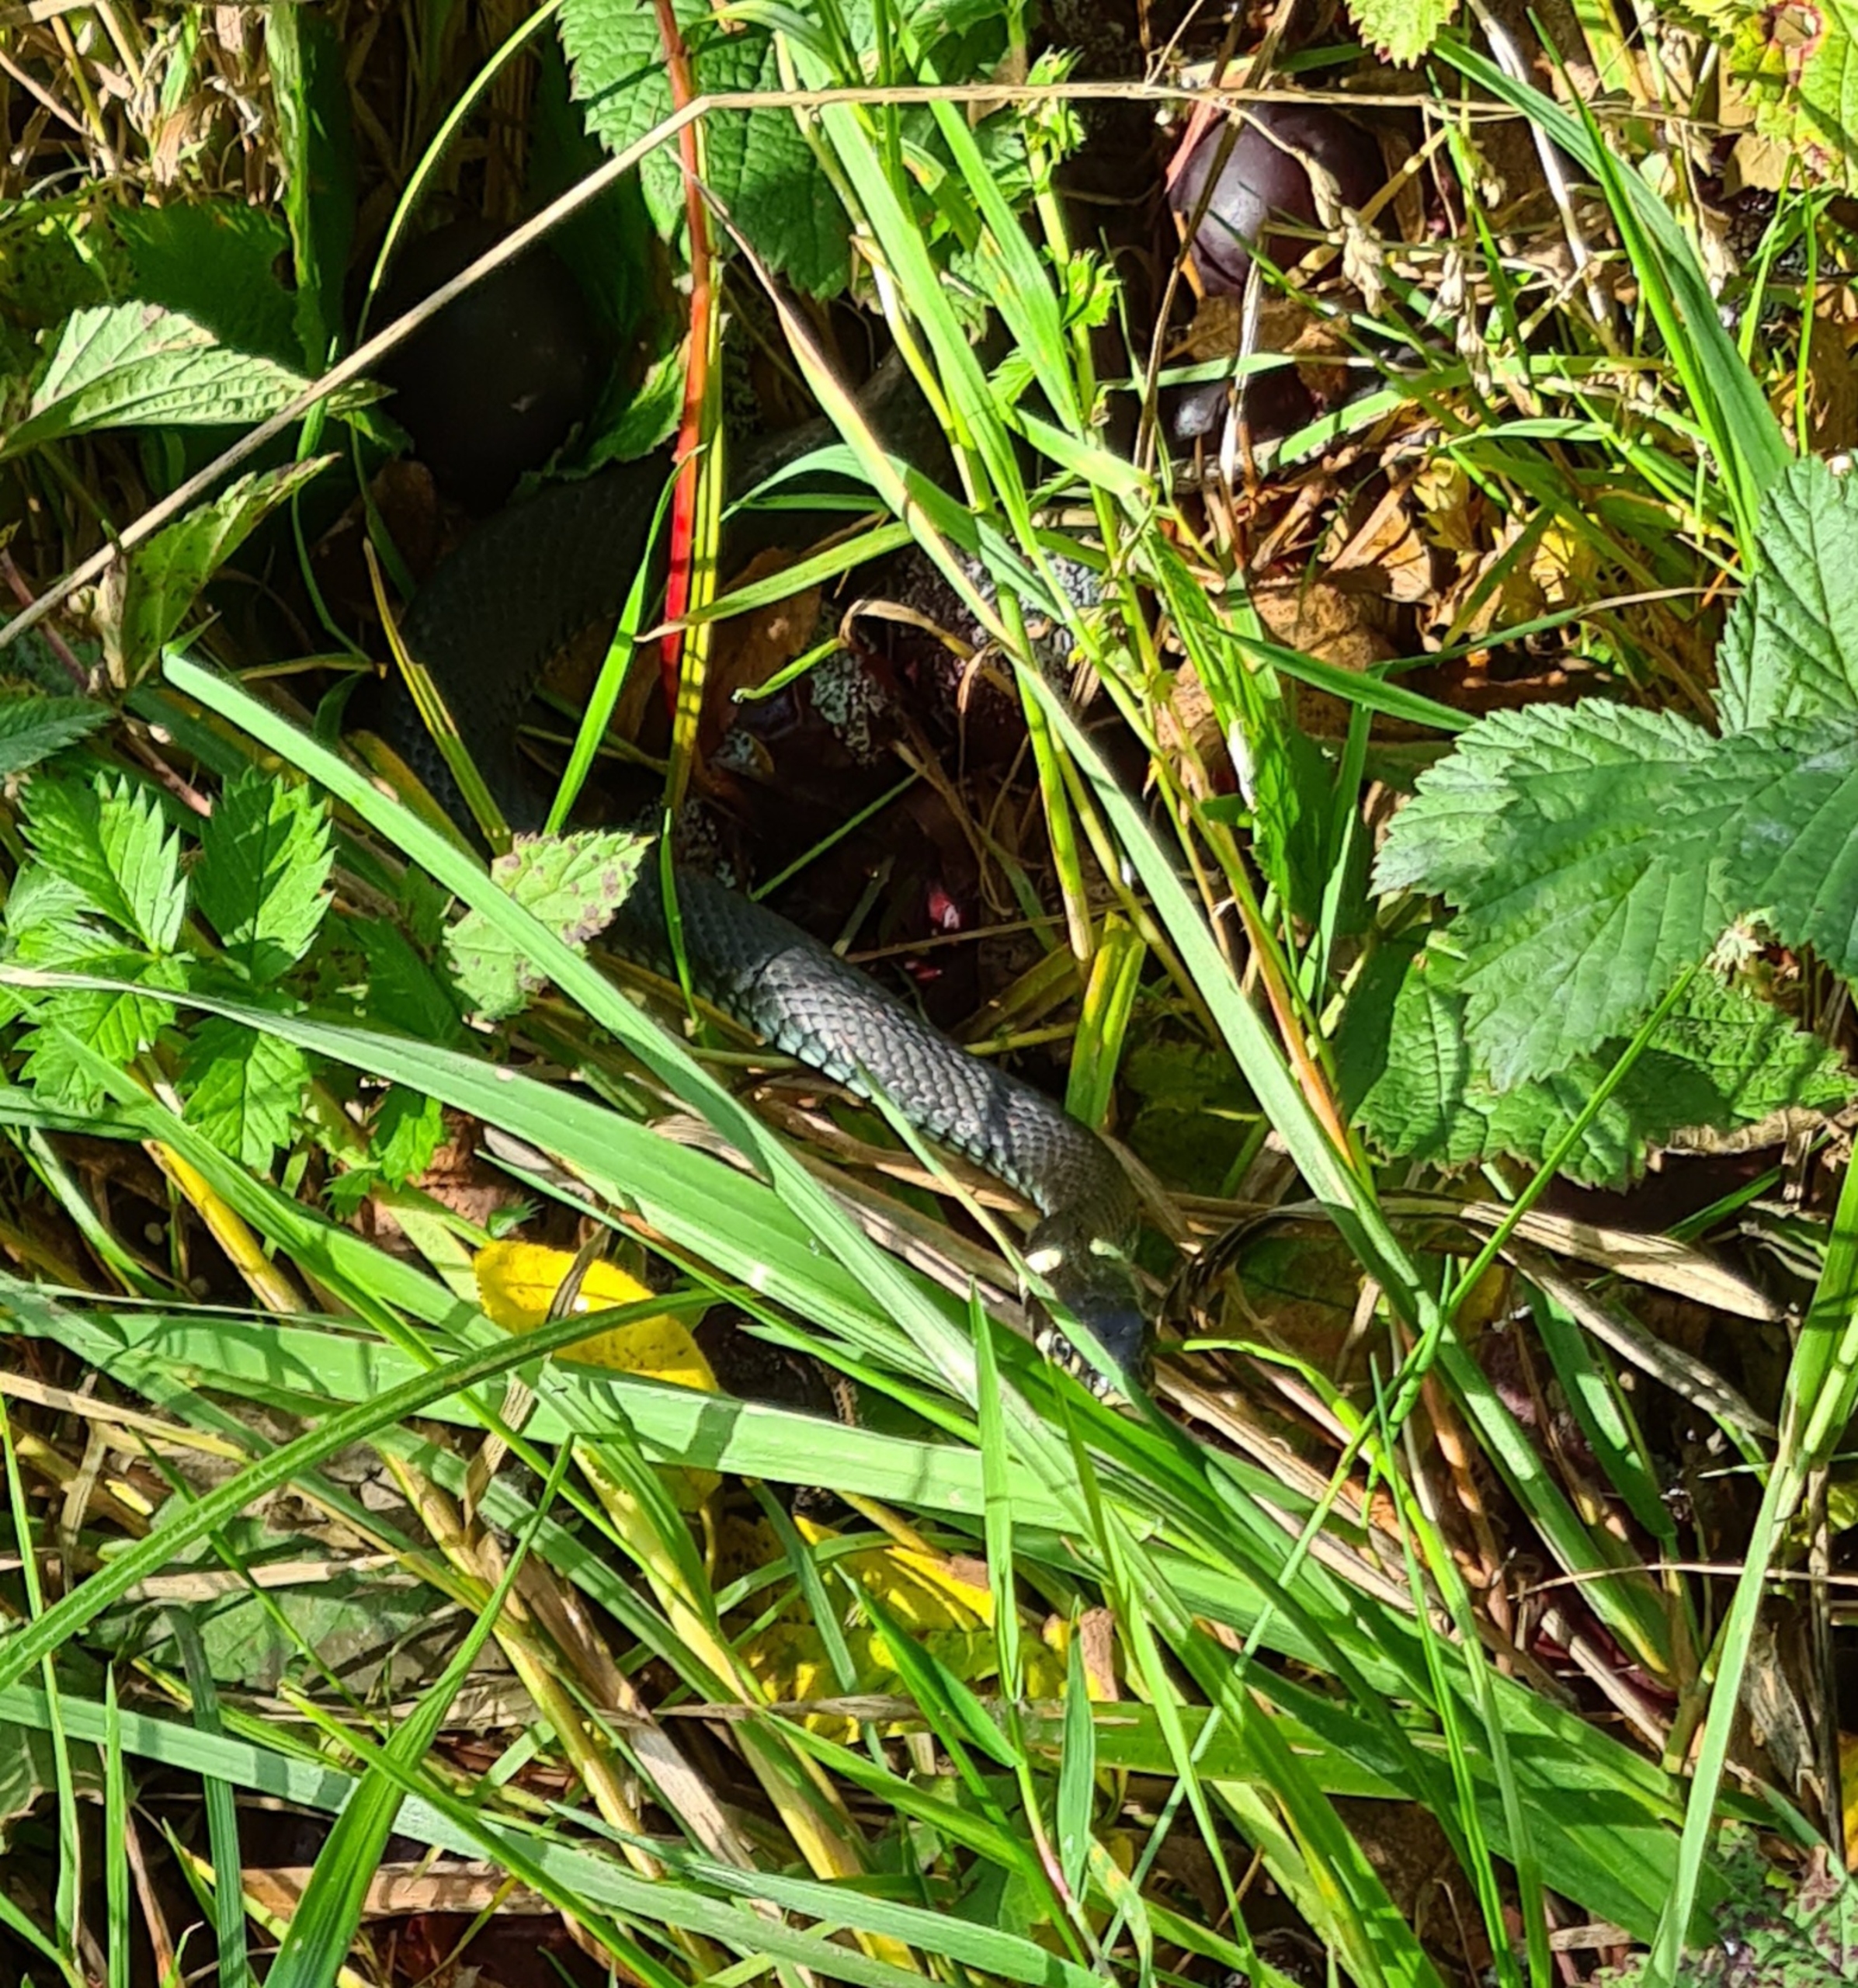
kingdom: Animalia
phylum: Chordata
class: Squamata
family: Colubridae
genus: Natrix
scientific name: Natrix natrix
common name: Snog
